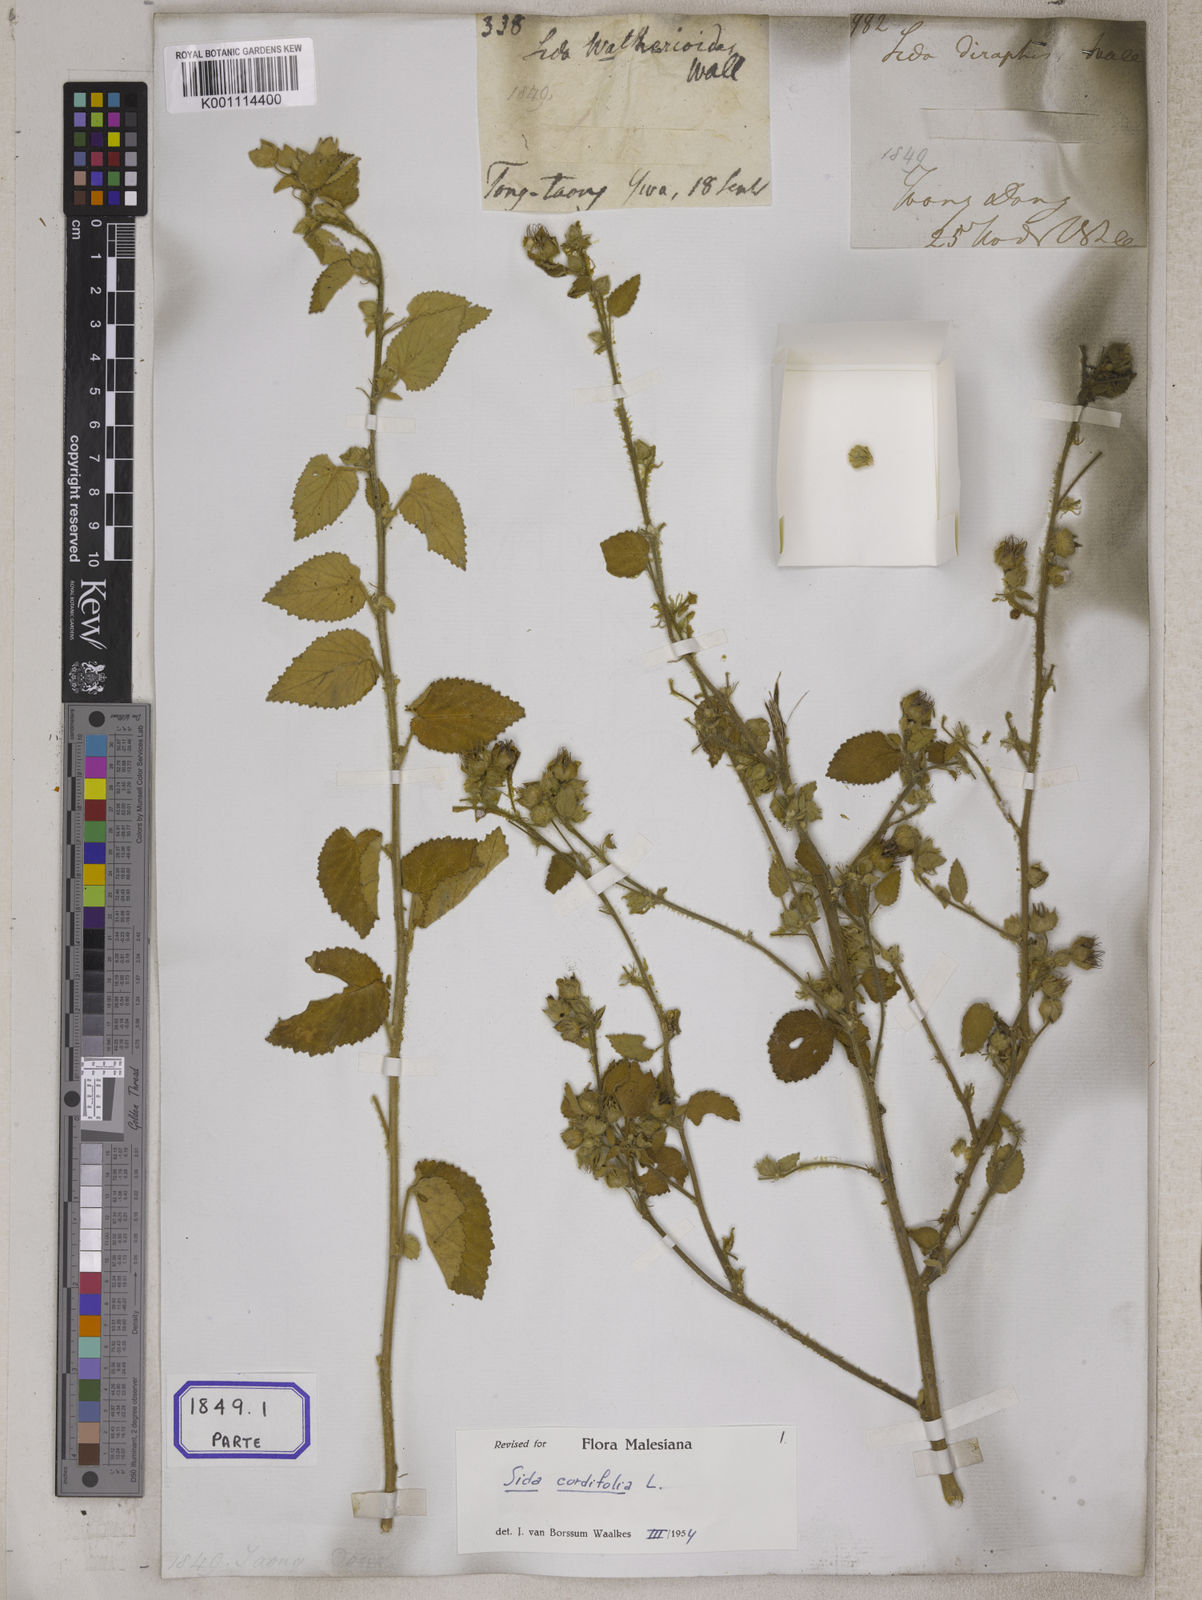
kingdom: Plantae
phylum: Tracheophyta
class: Magnoliopsida
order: Malvales
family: Malvaceae
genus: Sida
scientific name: Sida cordifolia
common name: Ilima
